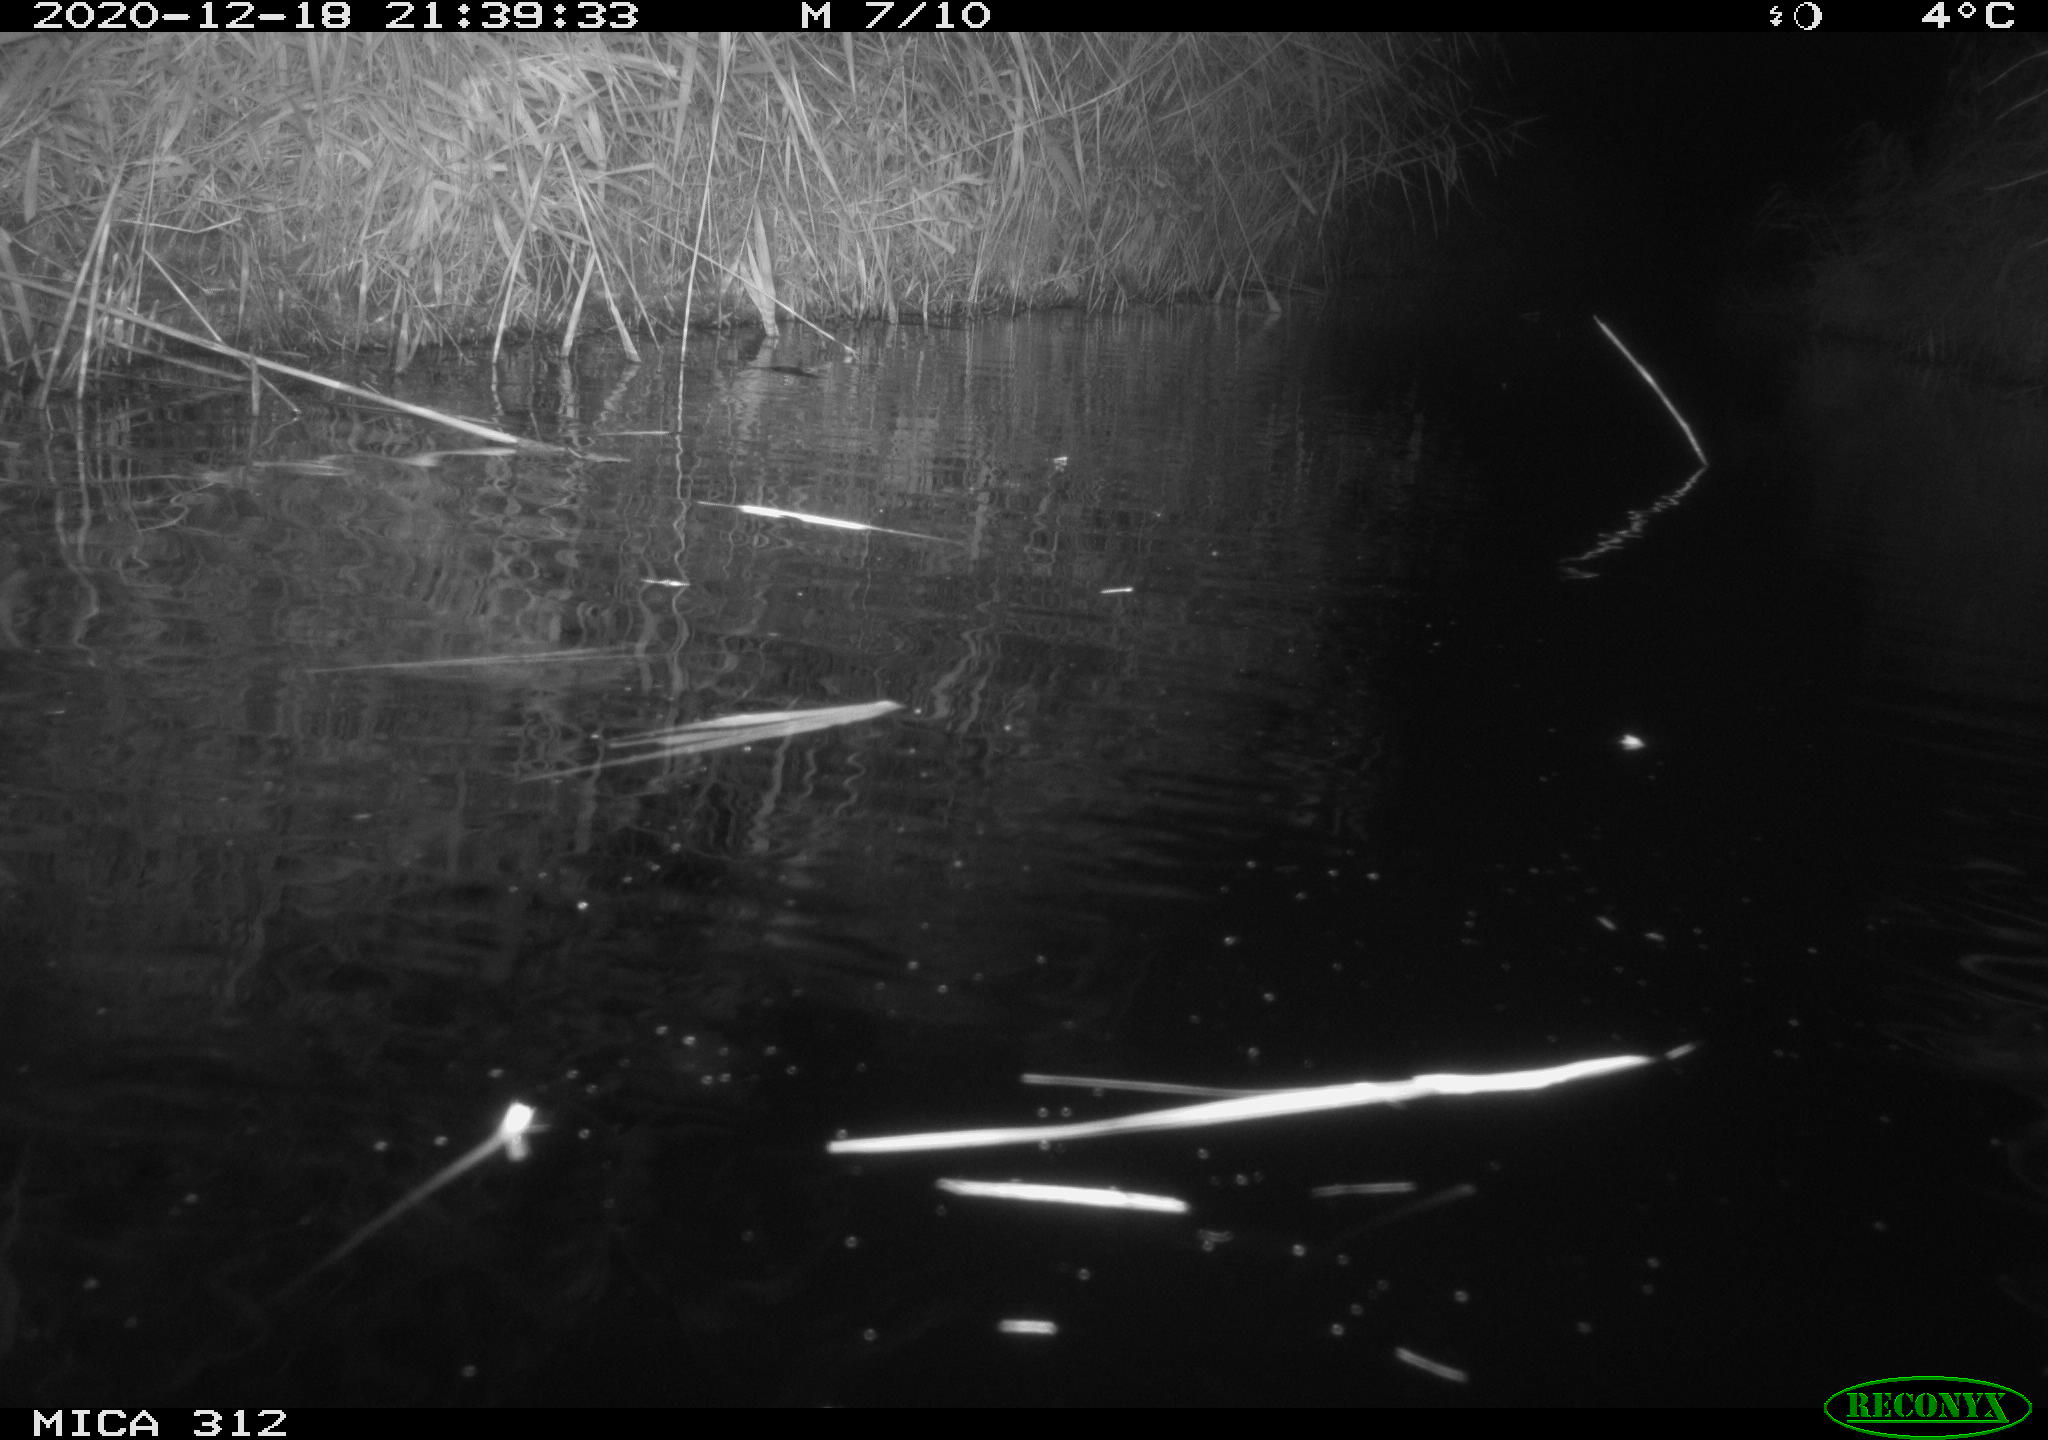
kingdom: Animalia
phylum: Chordata
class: Mammalia
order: Rodentia
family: Muridae
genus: Rattus
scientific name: Rattus norvegicus
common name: Brown rat
